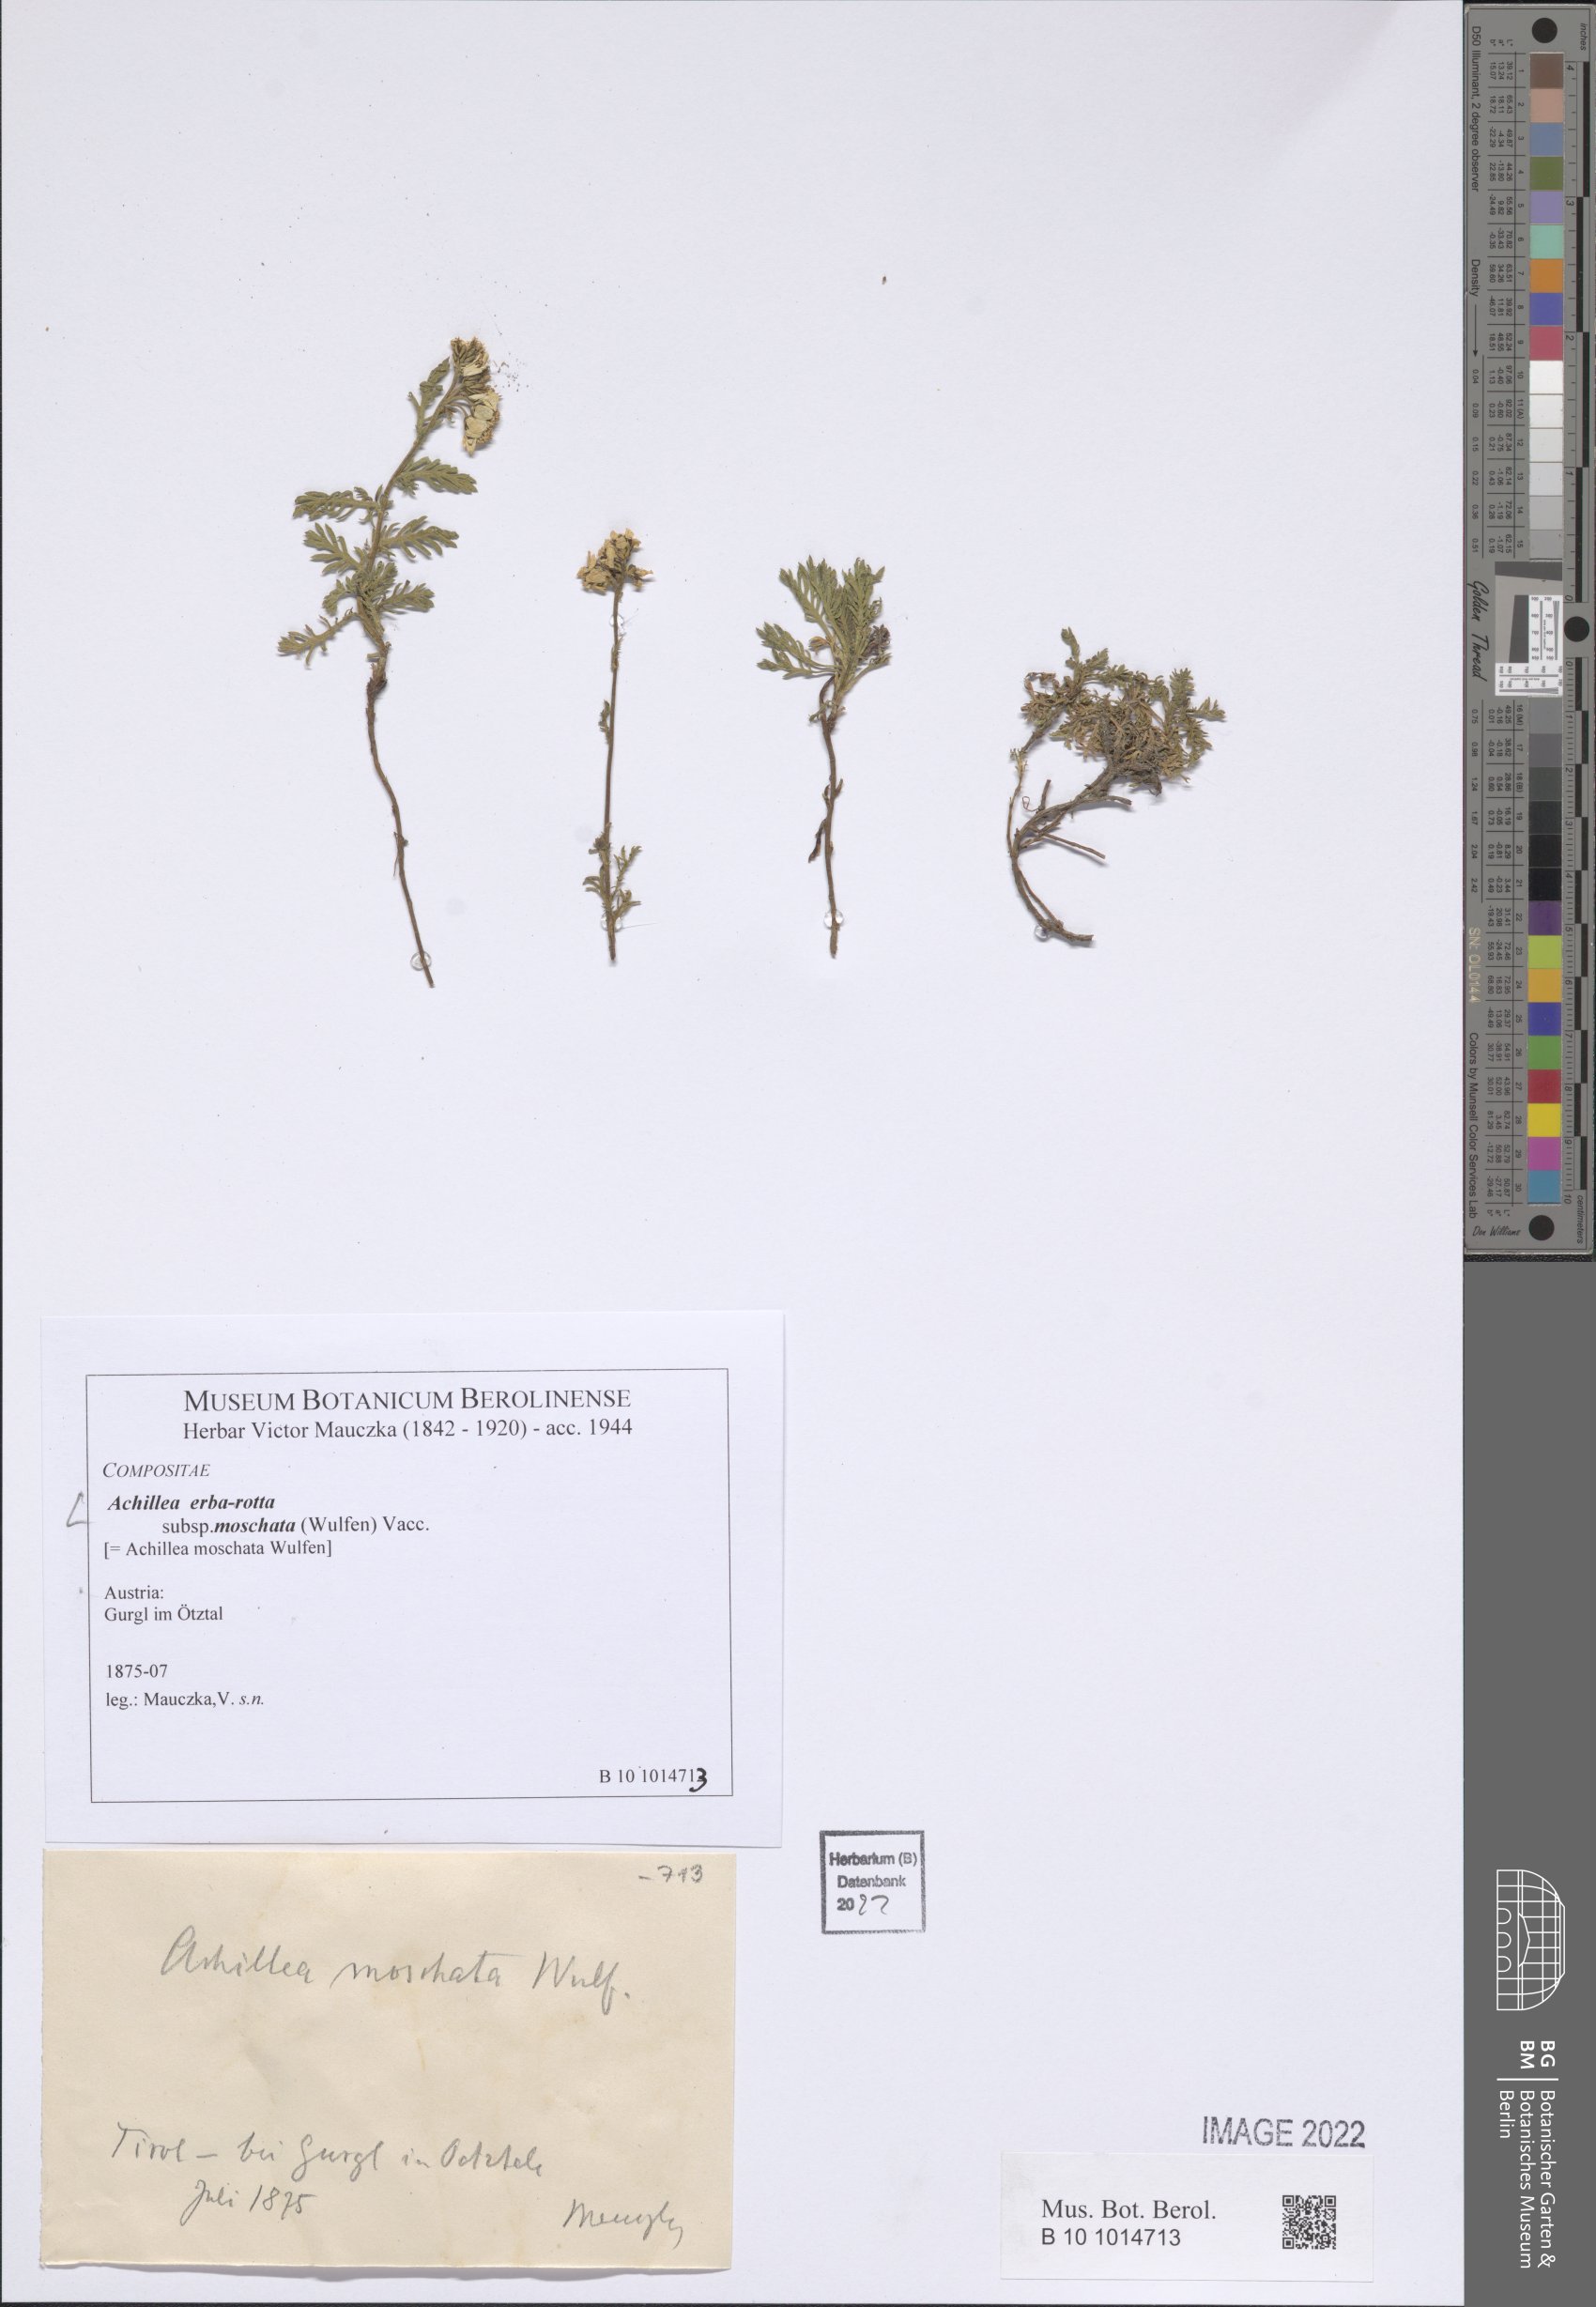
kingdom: Plantae
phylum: Tracheophyta
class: Magnoliopsida
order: Asterales
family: Asteraceae
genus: Achillea
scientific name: Achillea erba-rotta
